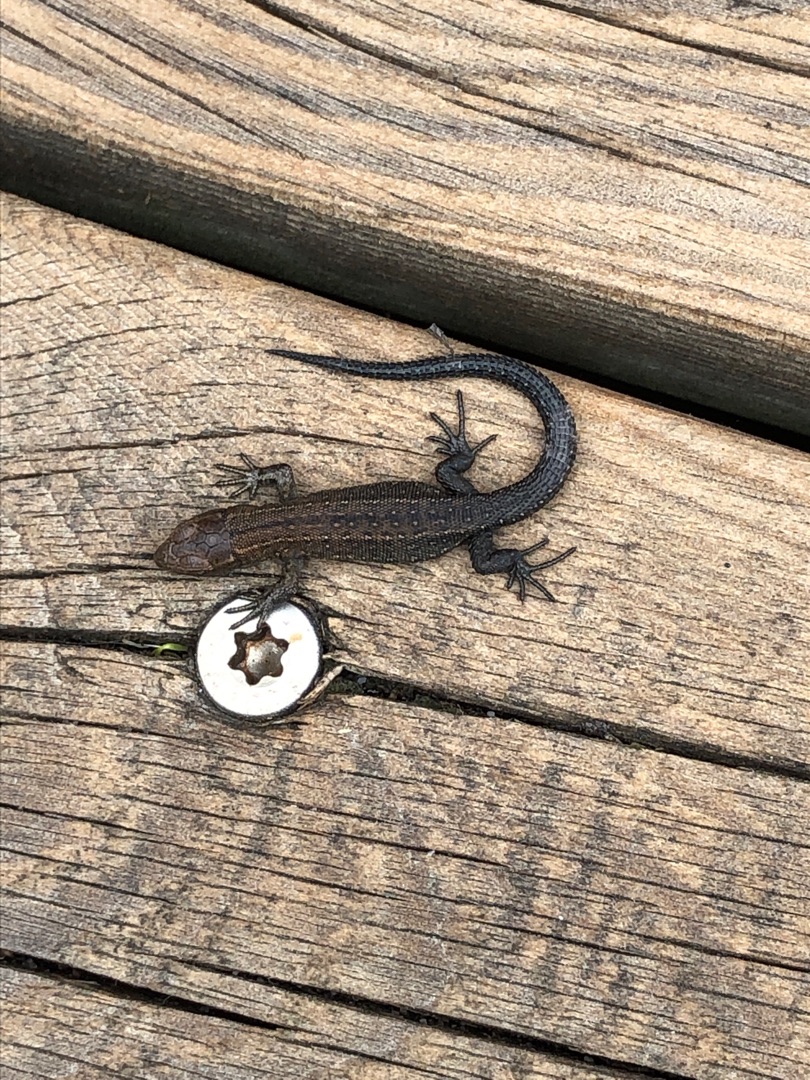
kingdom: Animalia
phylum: Chordata
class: Squamata
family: Lacertidae
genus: Zootoca
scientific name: Zootoca vivipara
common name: Skovfirben
